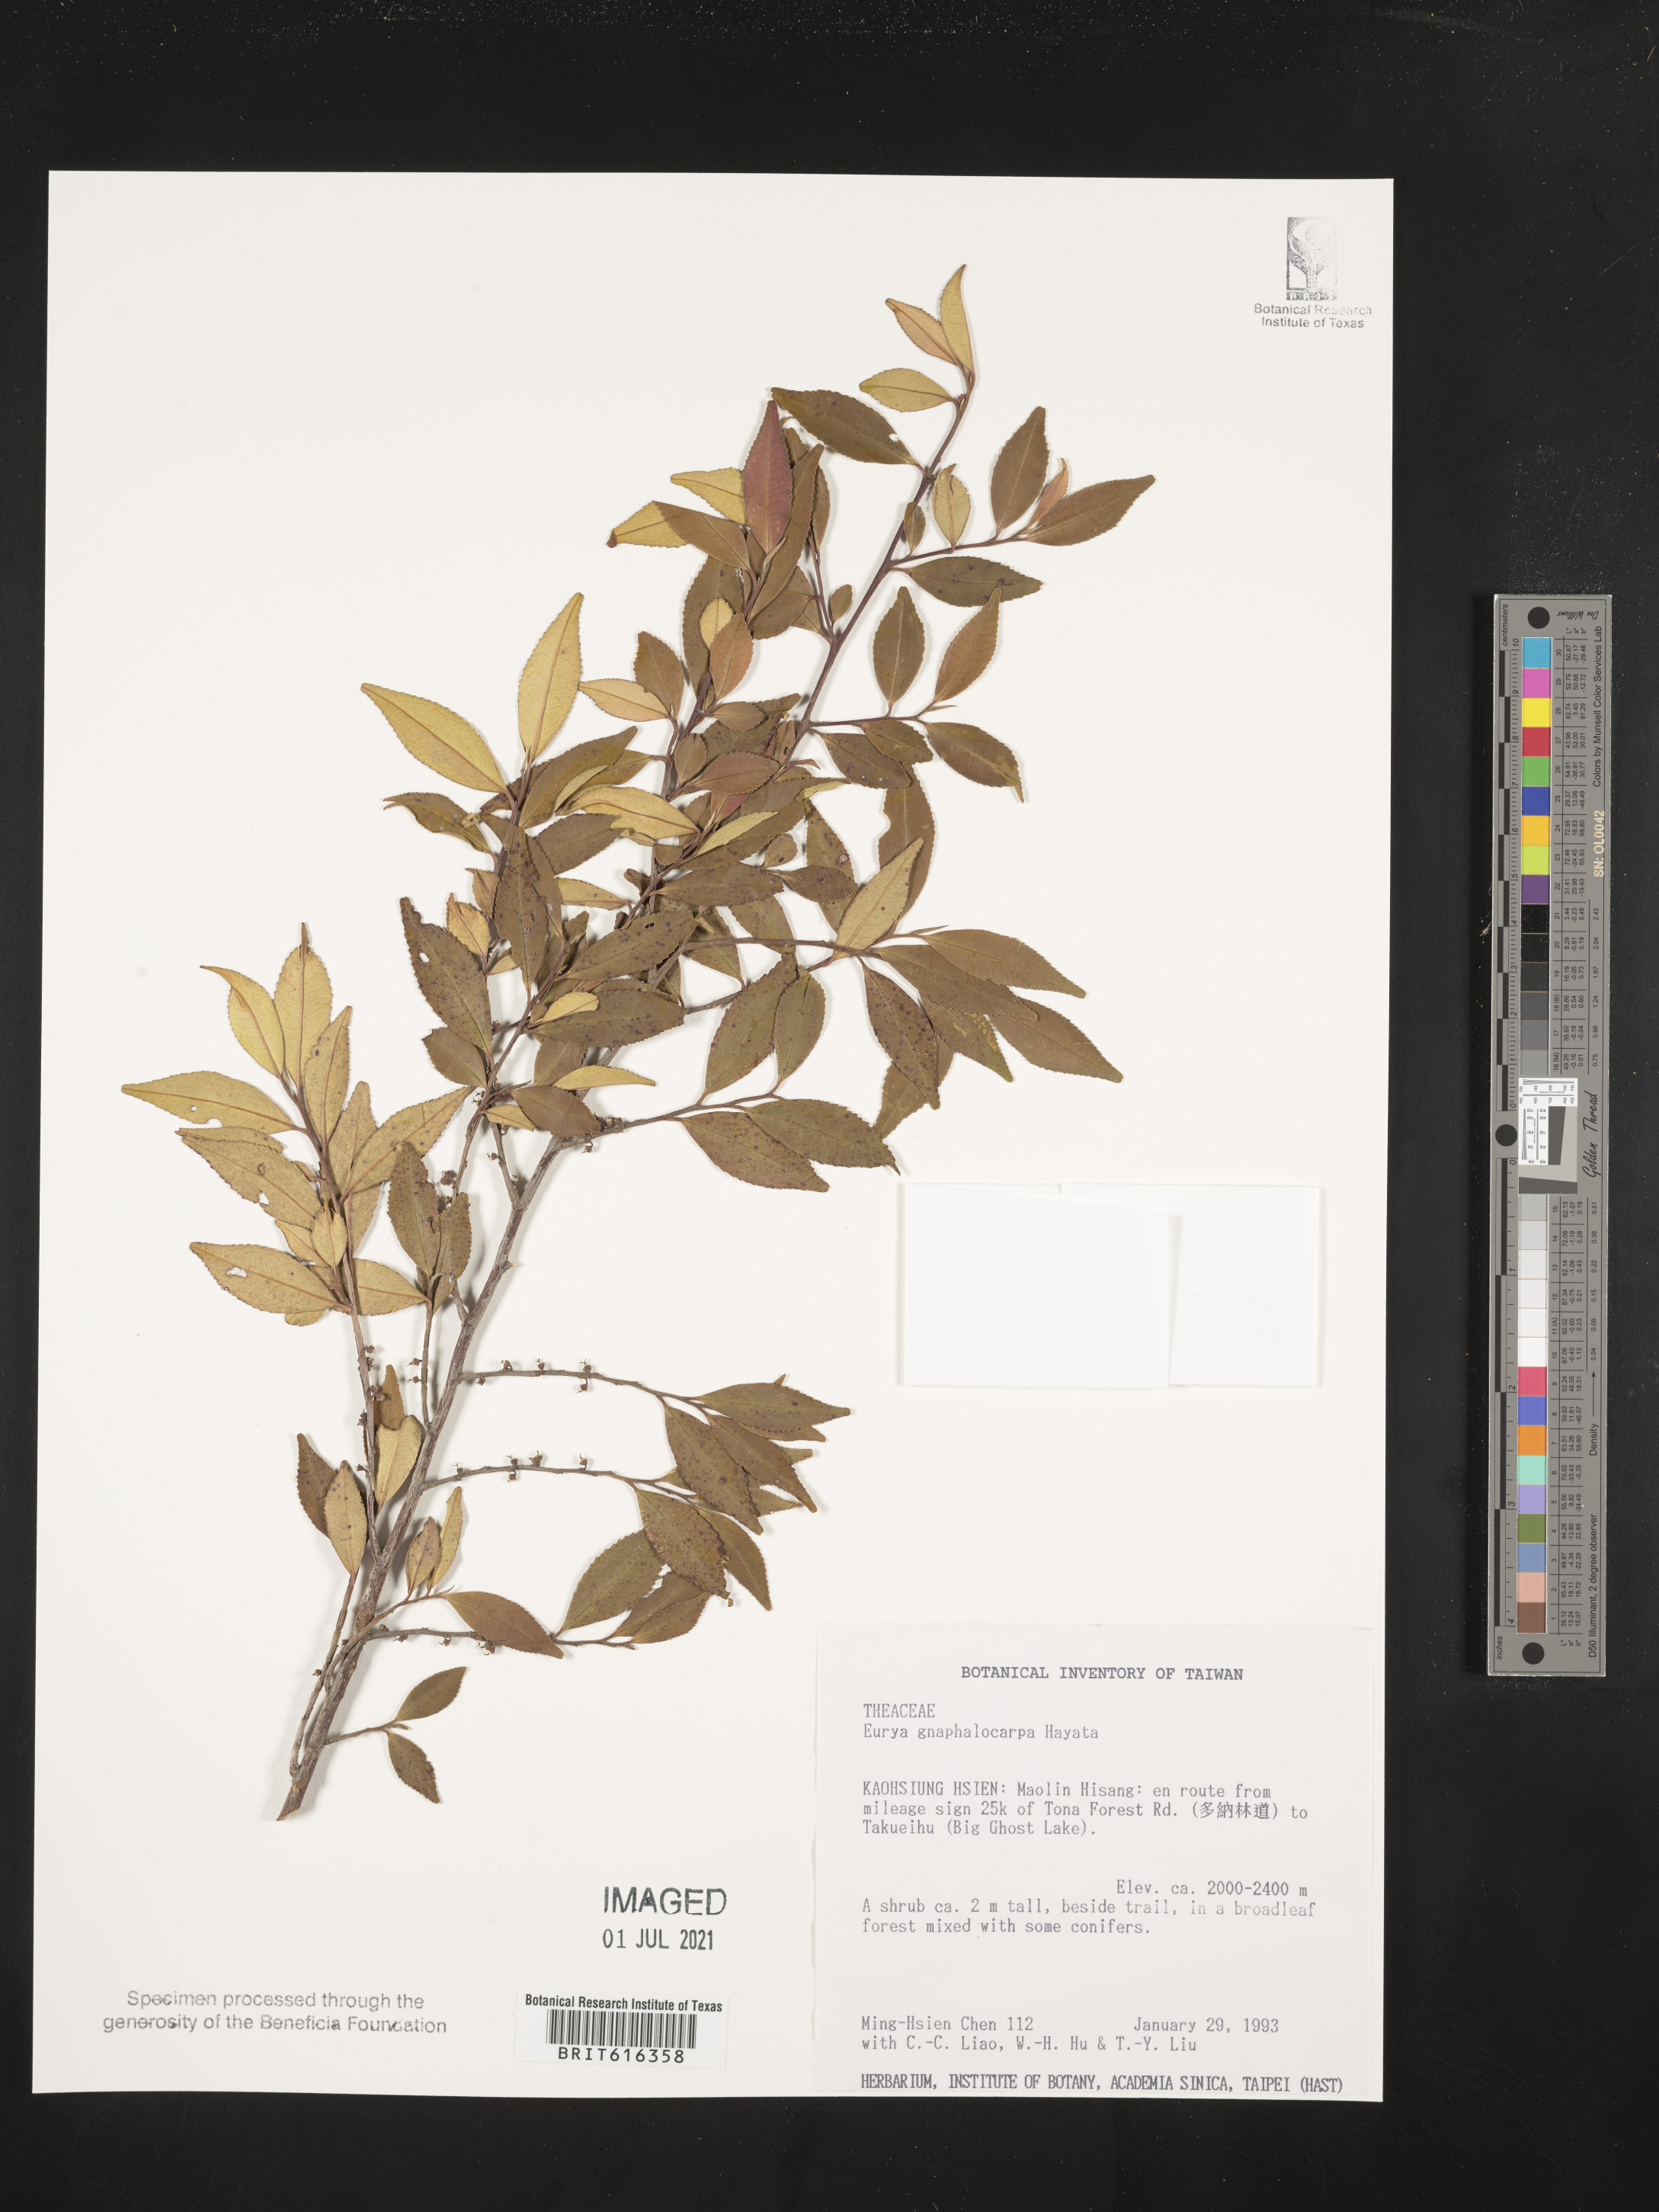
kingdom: Plantae
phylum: Tracheophyta
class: Magnoliopsida
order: Ericales
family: Pentaphylacaceae
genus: Eurya
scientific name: Eurya gnaphalocarpa
